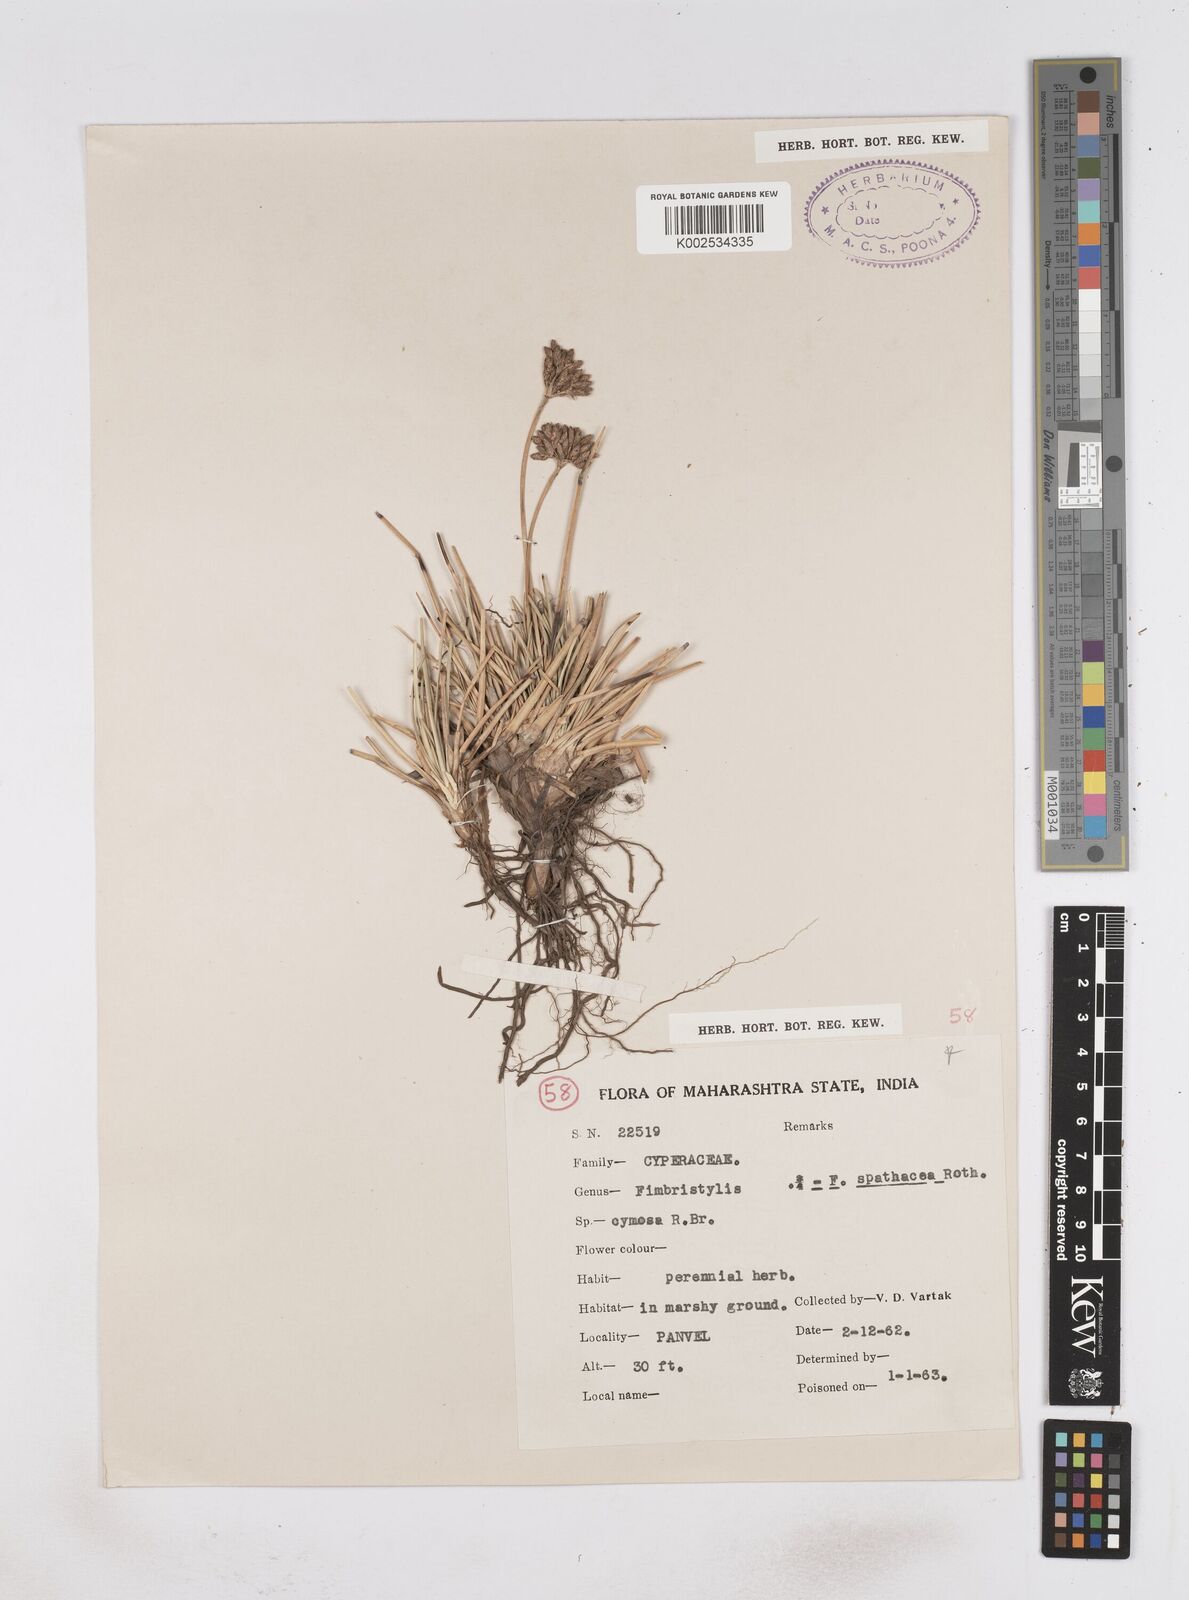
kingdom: Plantae
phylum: Tracheophyta
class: Liliopsida
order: Poales
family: Cyperaceae
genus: Fimbristylis
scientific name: Fimbristylis cymosa
